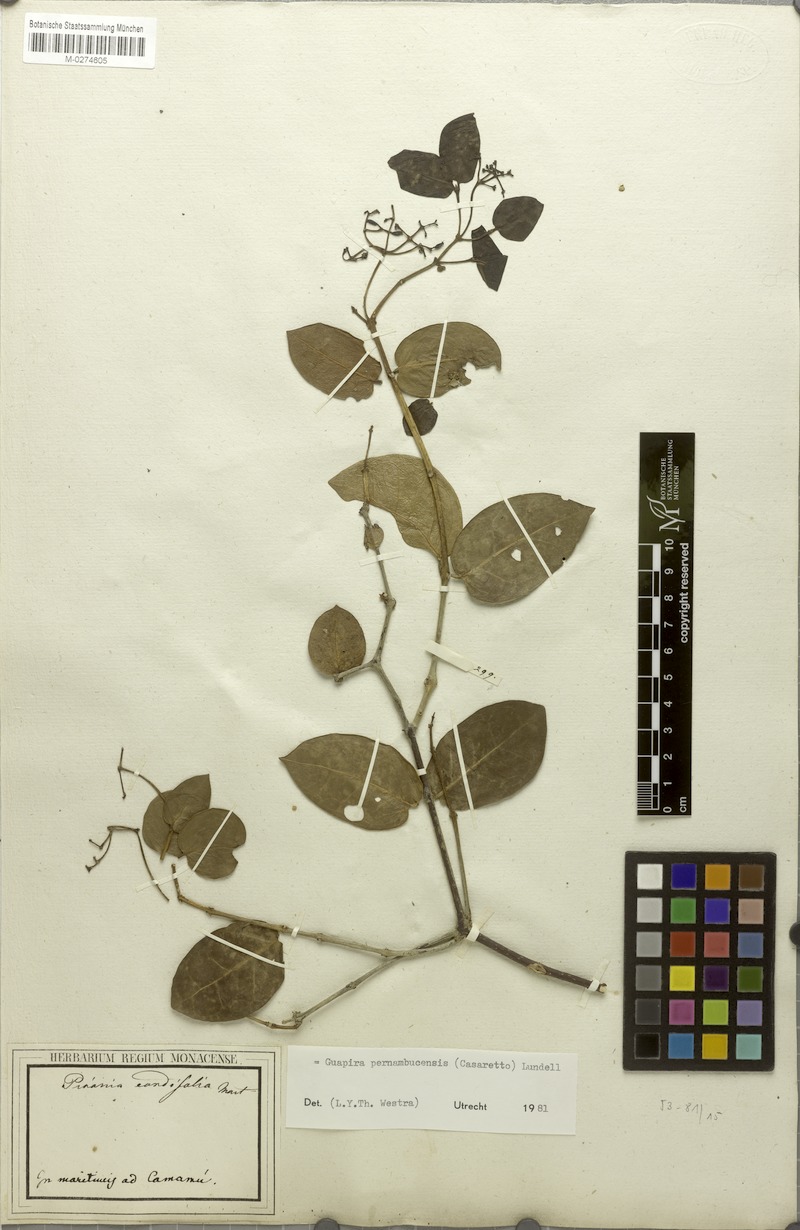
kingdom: Plantae
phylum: Tracheophyta
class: Magnoliopsida
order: Caryophyllales
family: Nyctaginaceae
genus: Guapira
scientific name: Guapira pernambucensis
